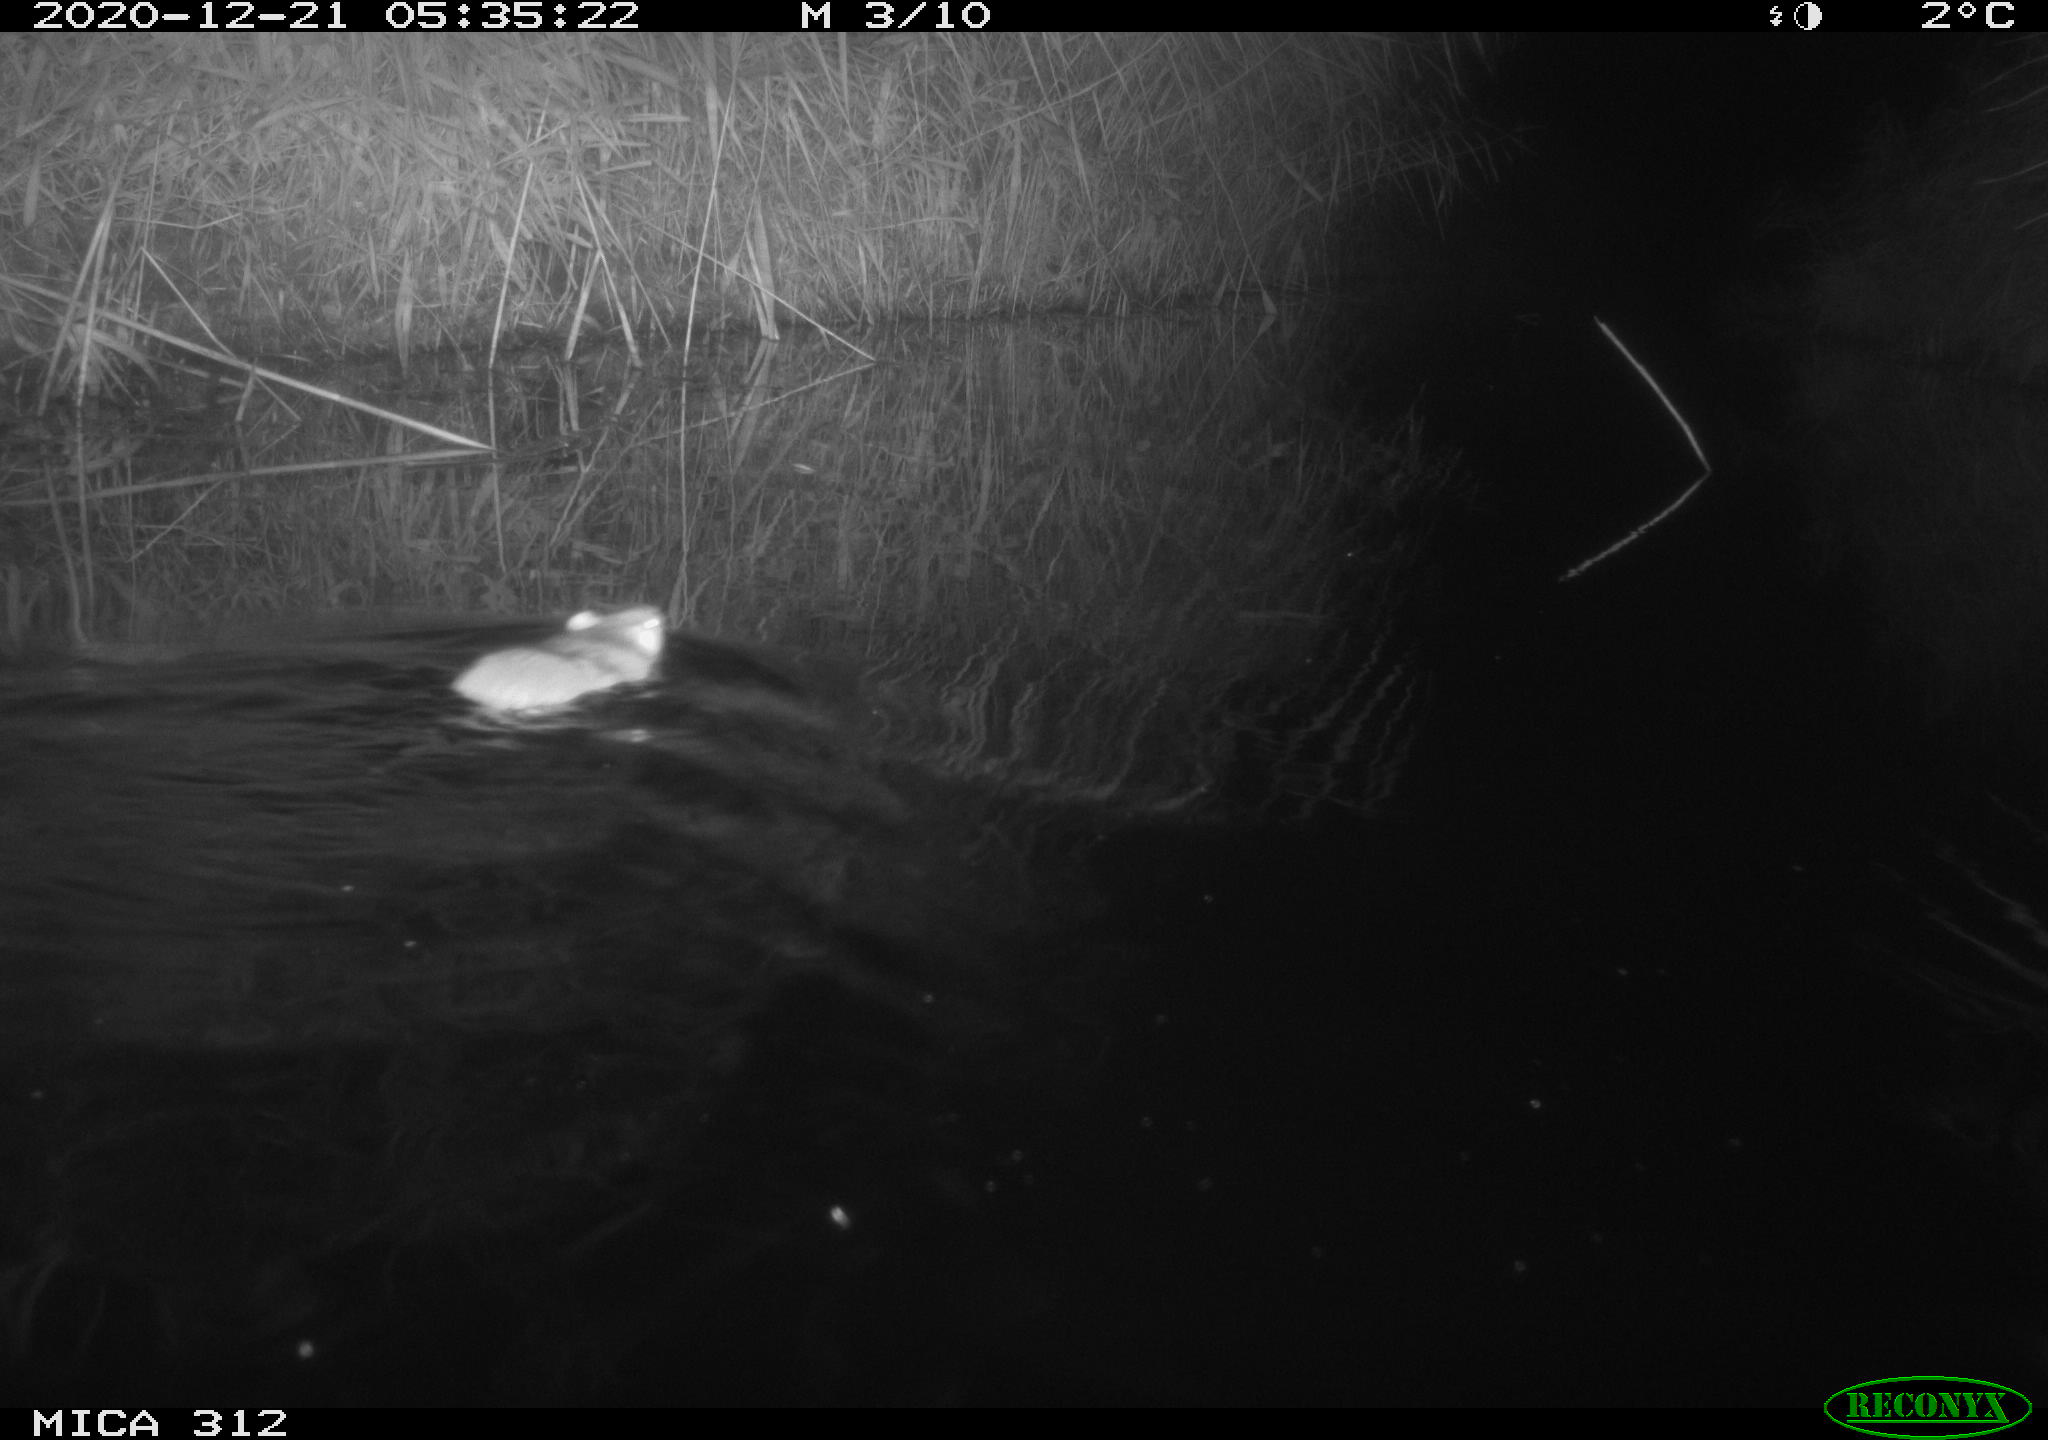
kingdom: Animalia
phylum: Chordata
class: Mammalia
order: Rodentia
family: Muridae
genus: Rattus
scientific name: Rattus norvegicus
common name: Brown rat
